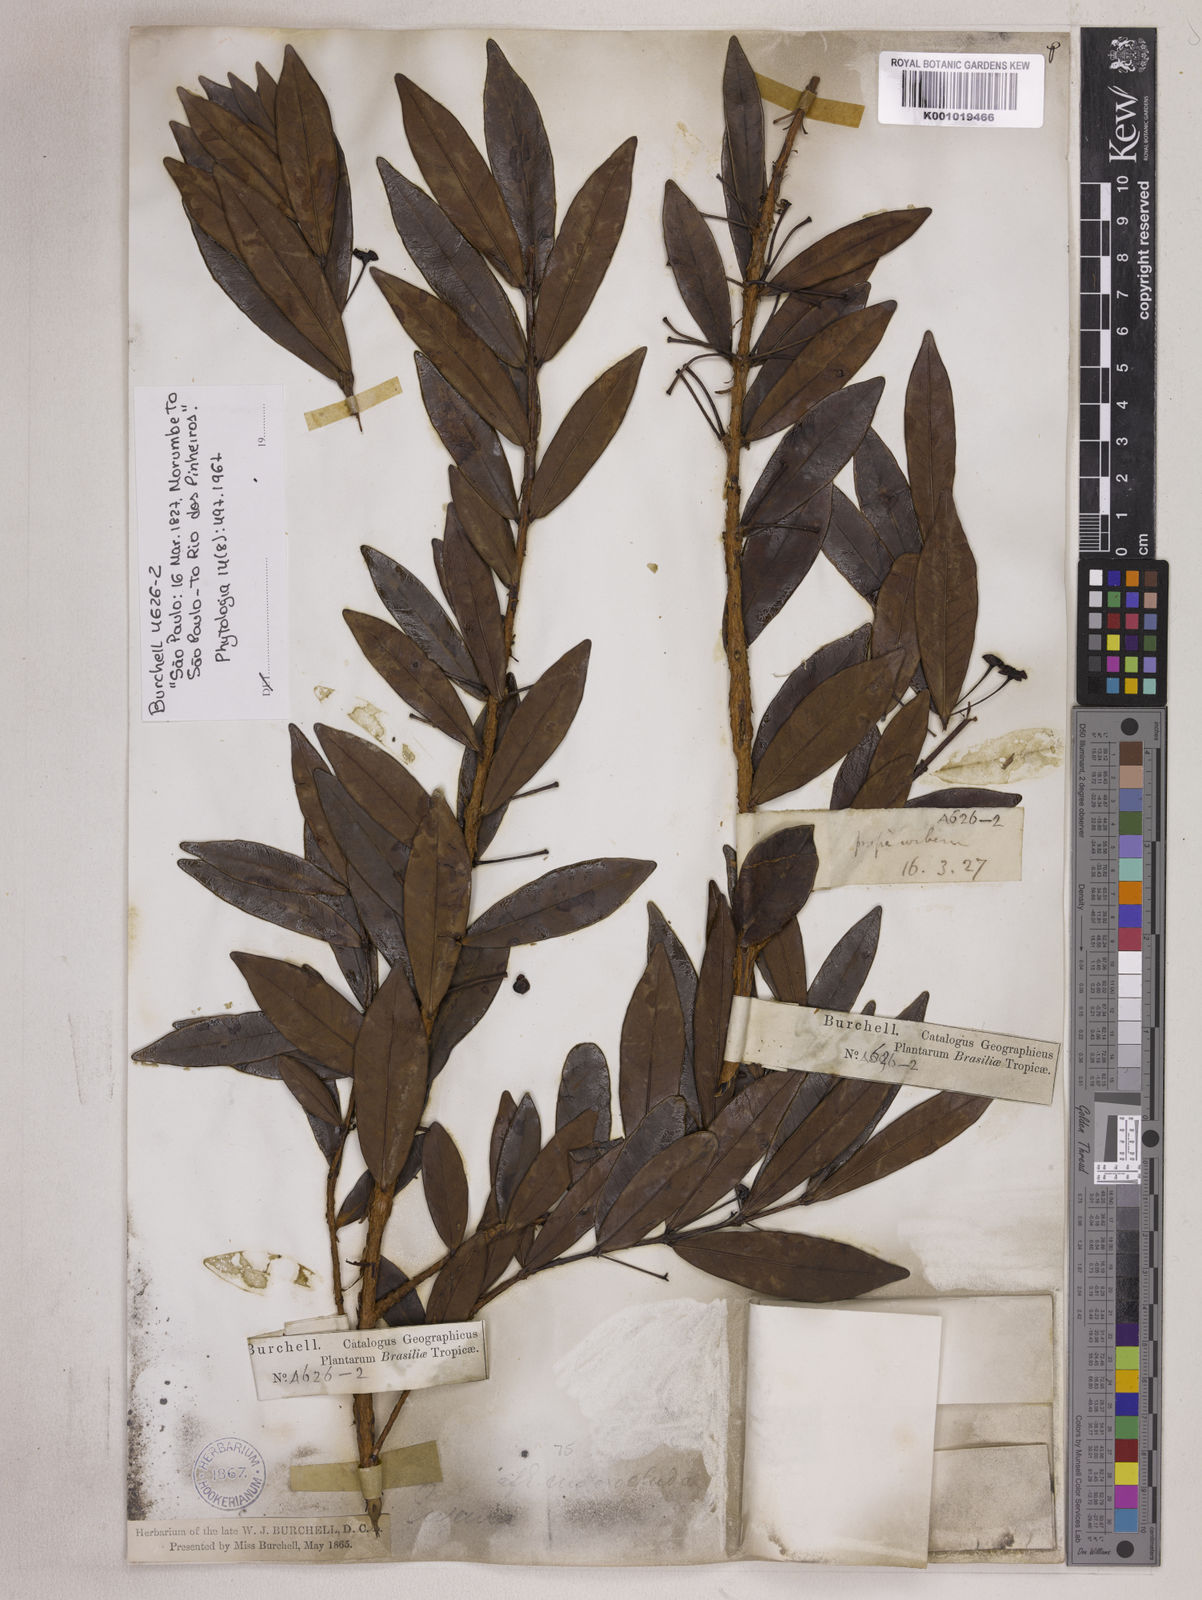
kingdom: Plantae
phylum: Tracheophyta
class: Magnoliopsida
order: Myrtales
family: Myrtaceae
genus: Eugenia
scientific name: Eugenia punicifolia
